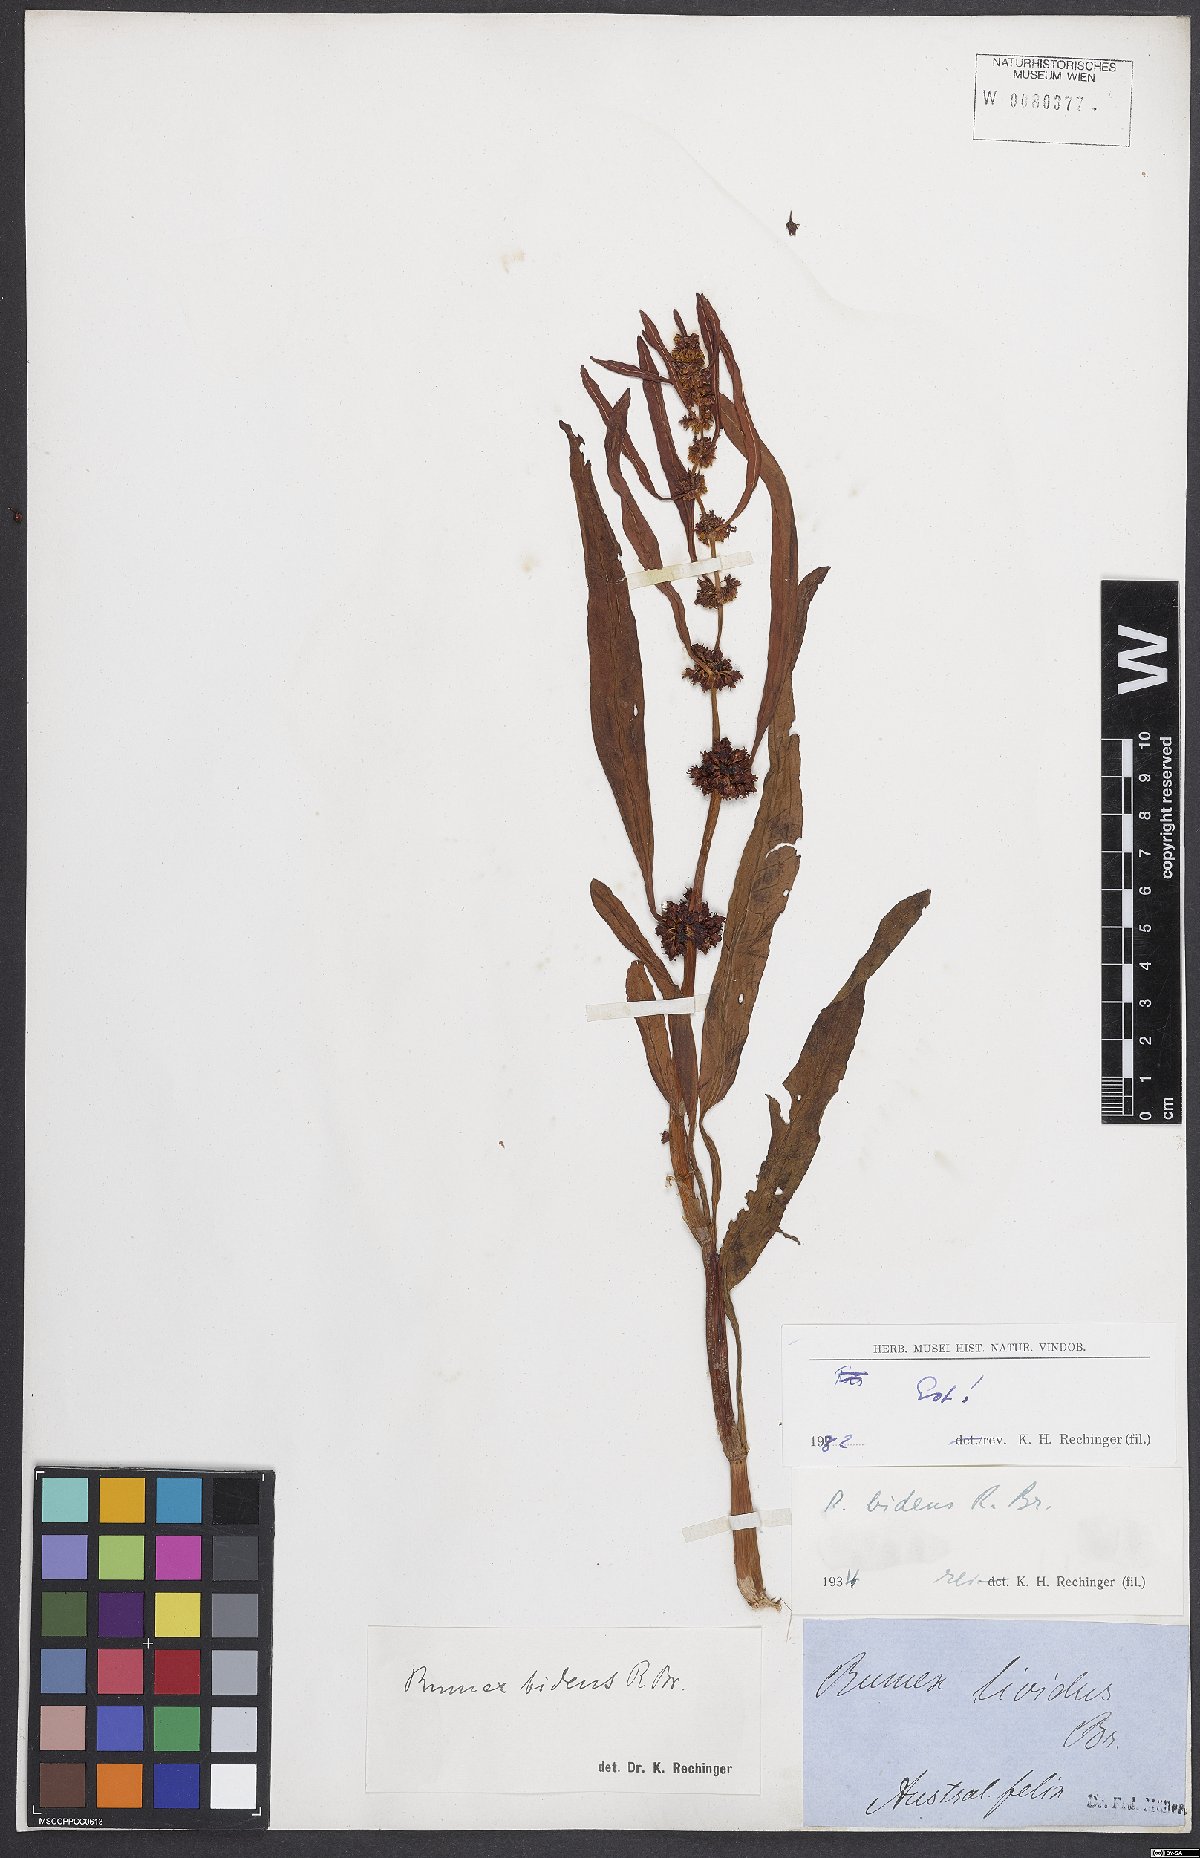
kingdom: Plantae
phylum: Tracheophyta
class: Magnoliopsida
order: Caryophyllales
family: Polygonaceae
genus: Rumex
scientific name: Rumex
